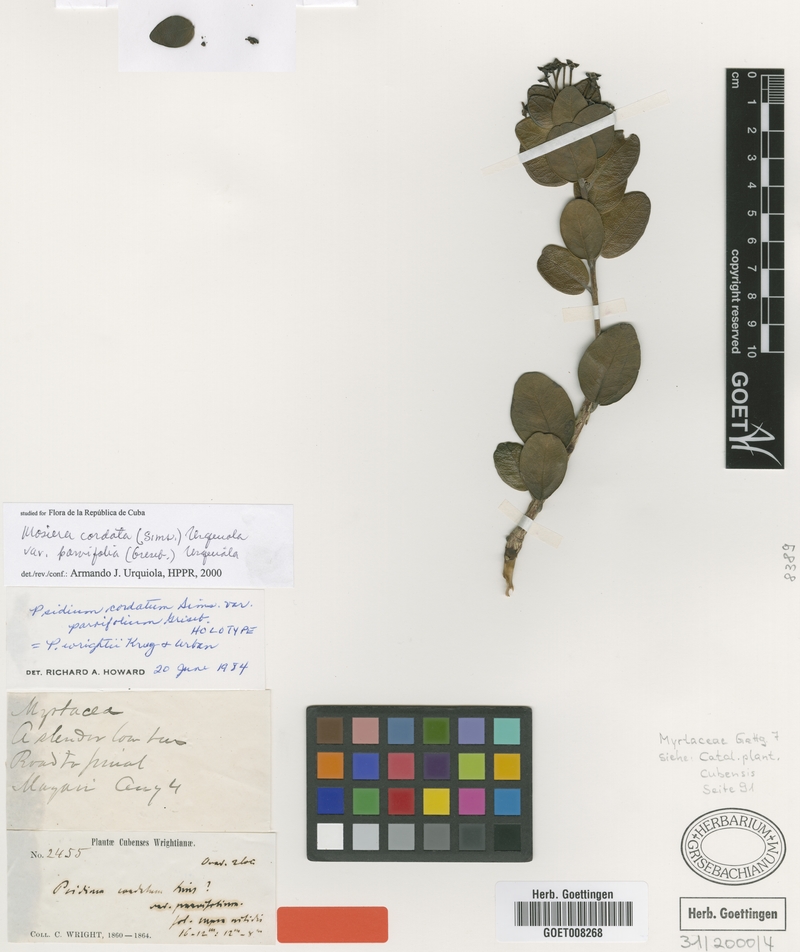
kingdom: Plantae
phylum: Tracheophyta
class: Magnoliopsida
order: Myrtales
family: Myrtaceae
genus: Psidium
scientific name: Psidium parvifolium
